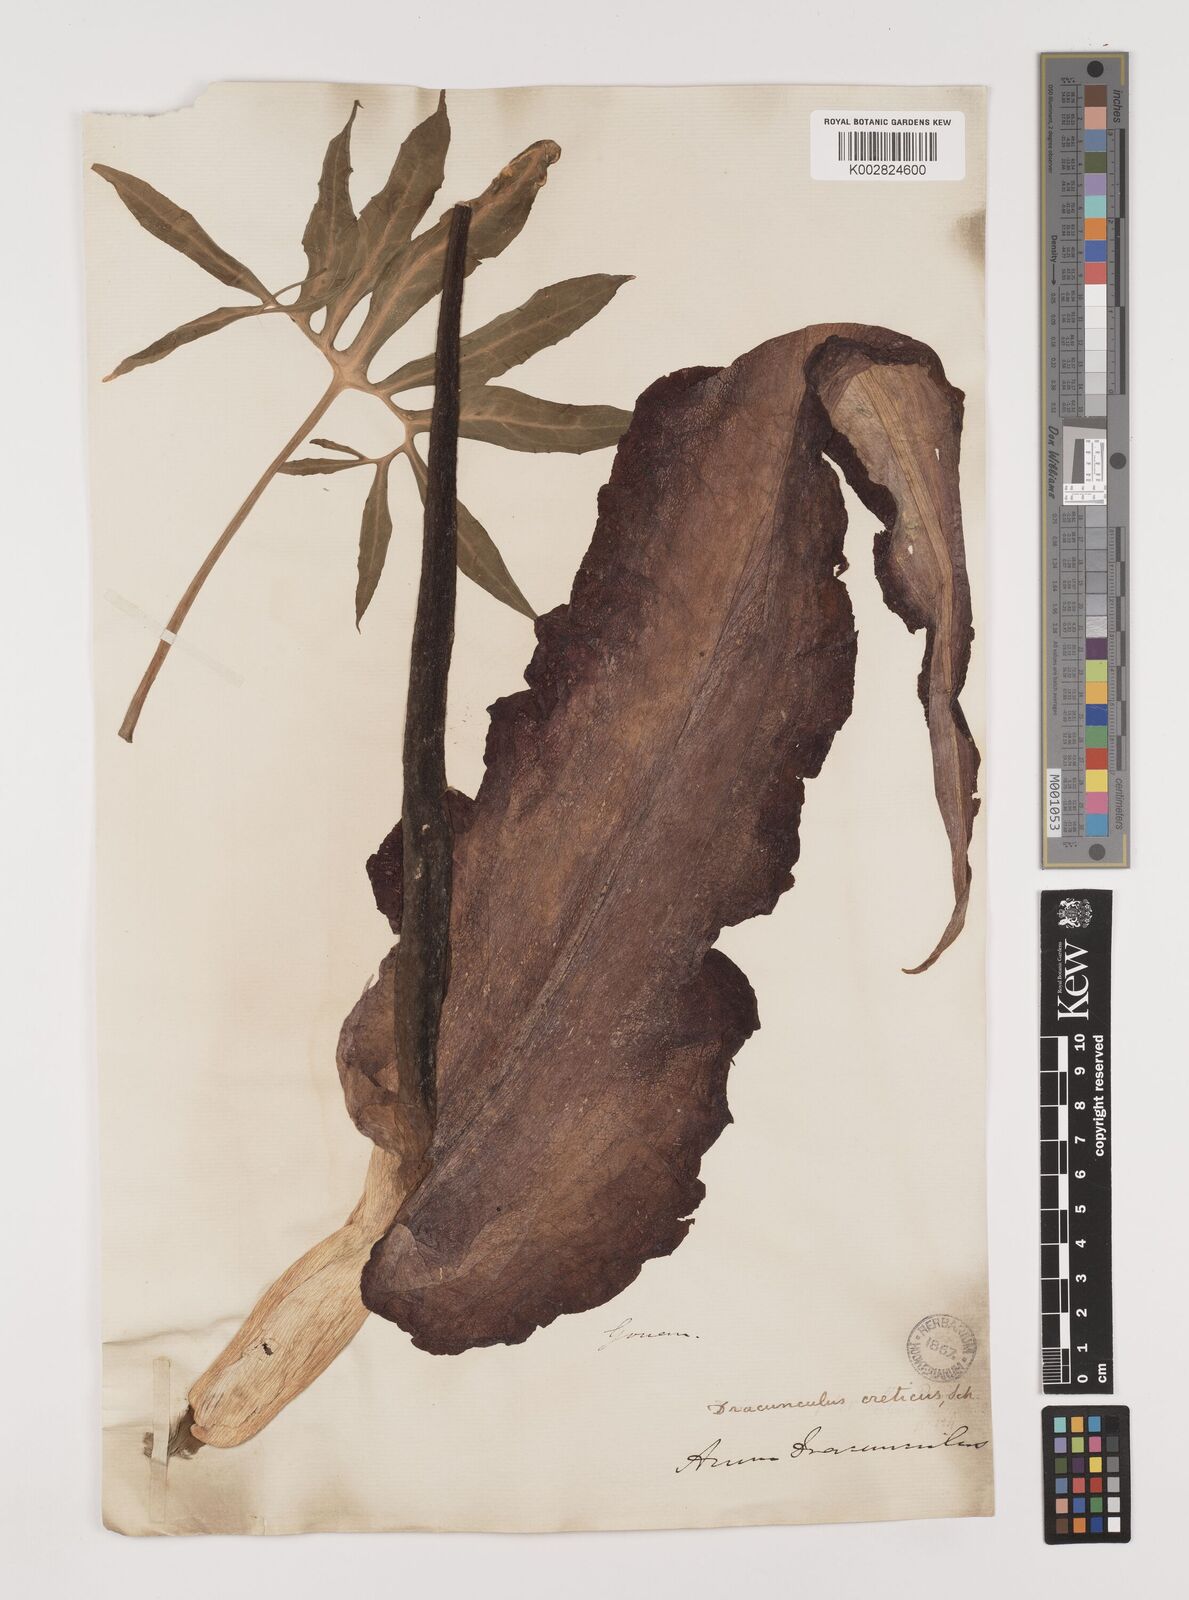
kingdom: Plantae
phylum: Tracheophyta
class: Liliopsida
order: Alismatales
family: Araceae
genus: Dracunculus
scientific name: Dracunculus vulgaris
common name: Dragon arum
